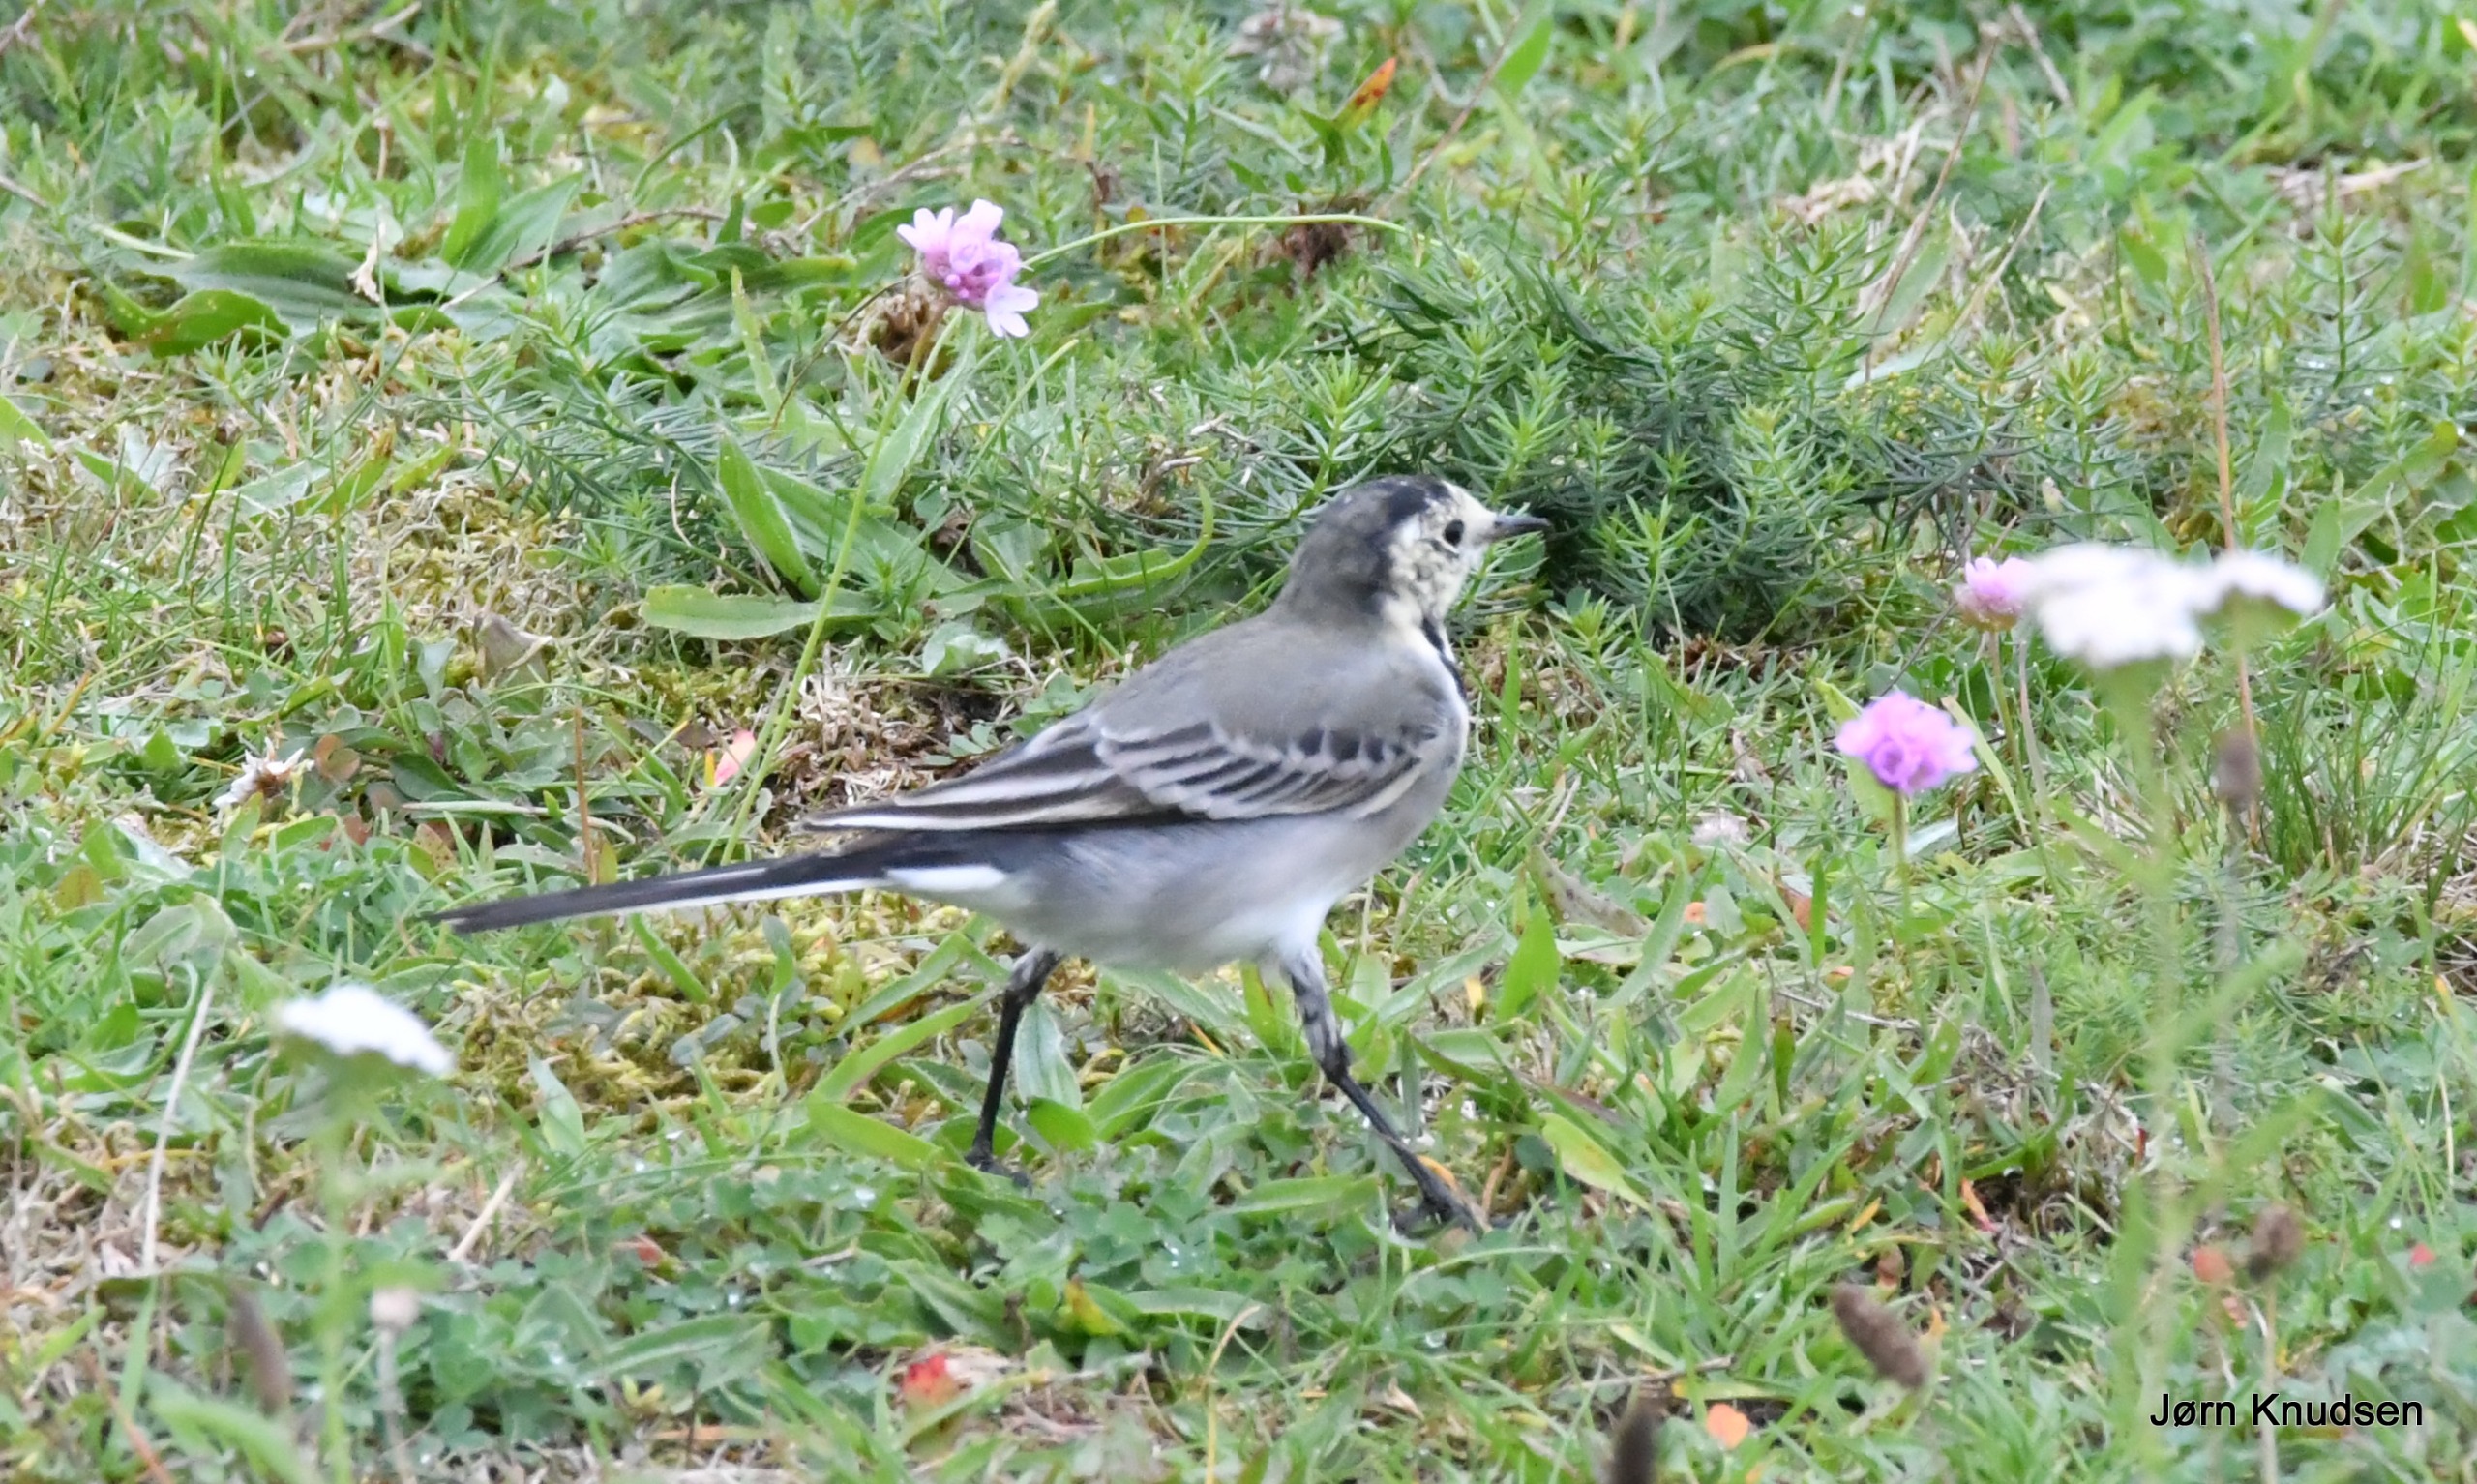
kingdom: Animalia
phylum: Chordata
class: Aves
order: Passeriformes
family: Motacillidae
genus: Motacilla
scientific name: Motacilla alba
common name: Hvid vipstjert
